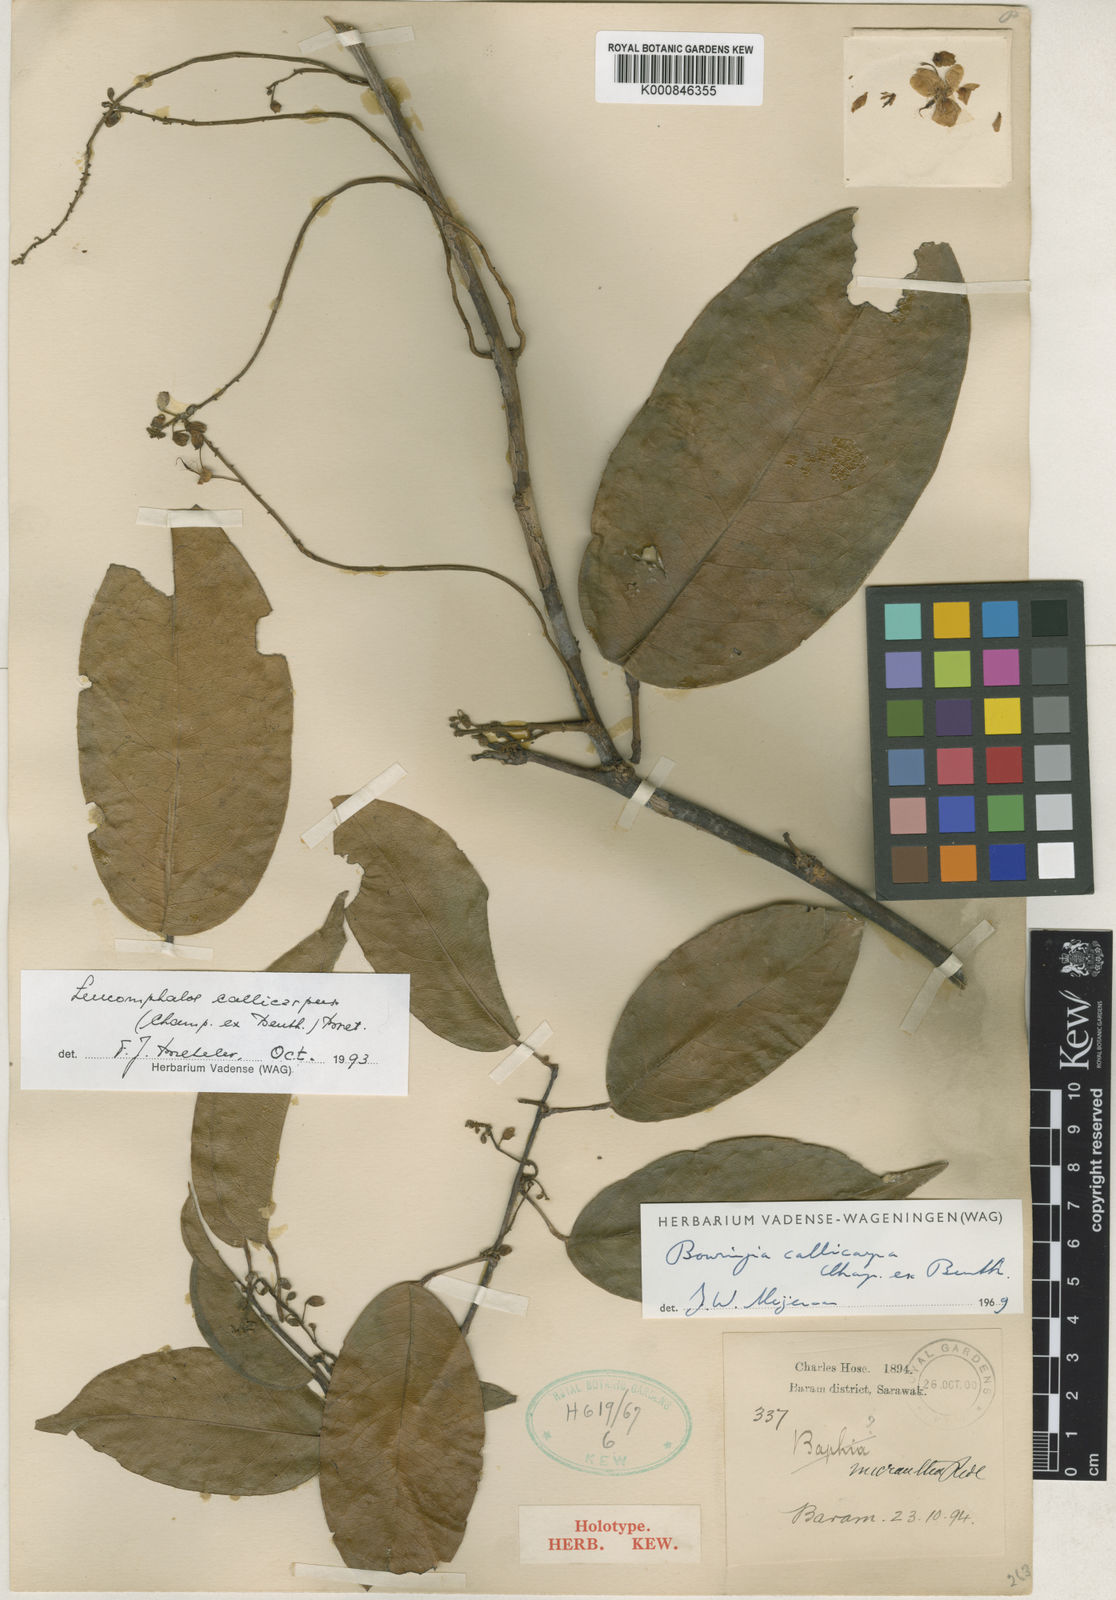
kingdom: Plantae
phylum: Tracheophyta
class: Magnoliopsida
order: Fabales
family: Fabaceae
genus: Bowringia
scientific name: Bowringia callicarpa
